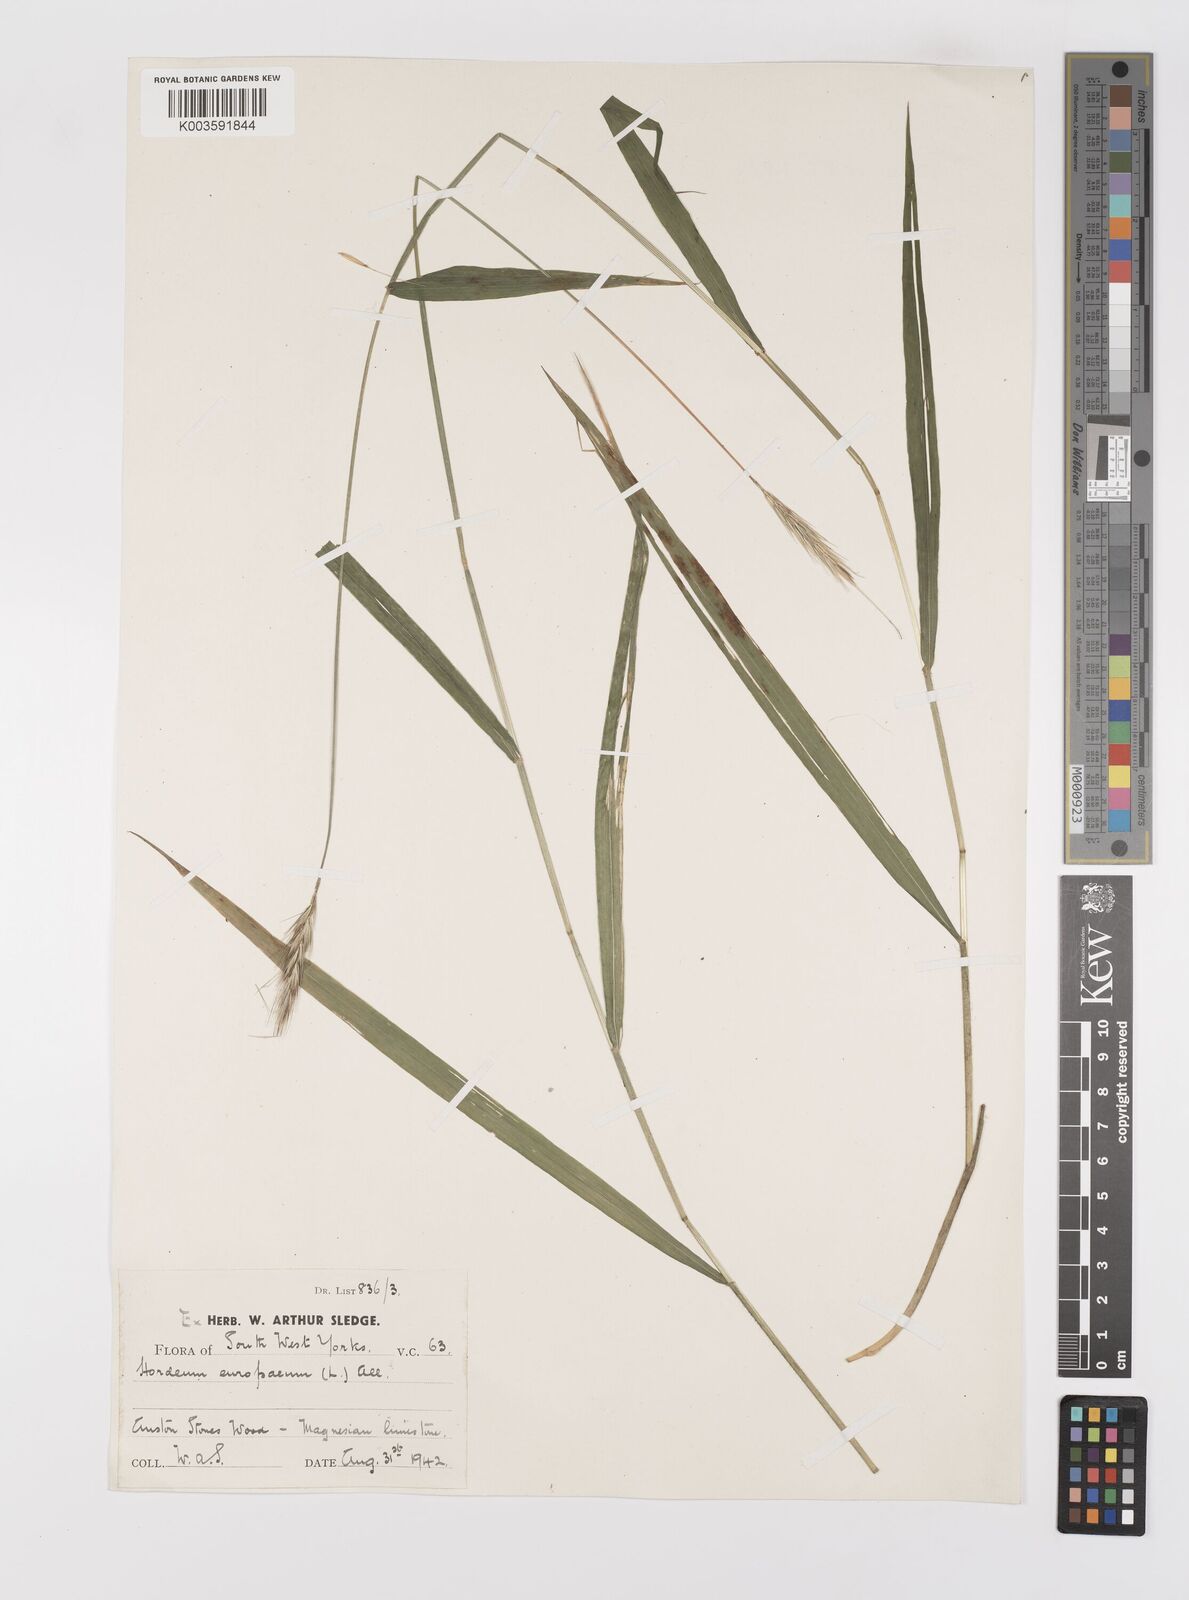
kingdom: Plantae
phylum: Tracheophyta
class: Liliopsida
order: Poales
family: Poaceae
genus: Hordelymus
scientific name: Hordelymus europaeus
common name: Wood-barley
